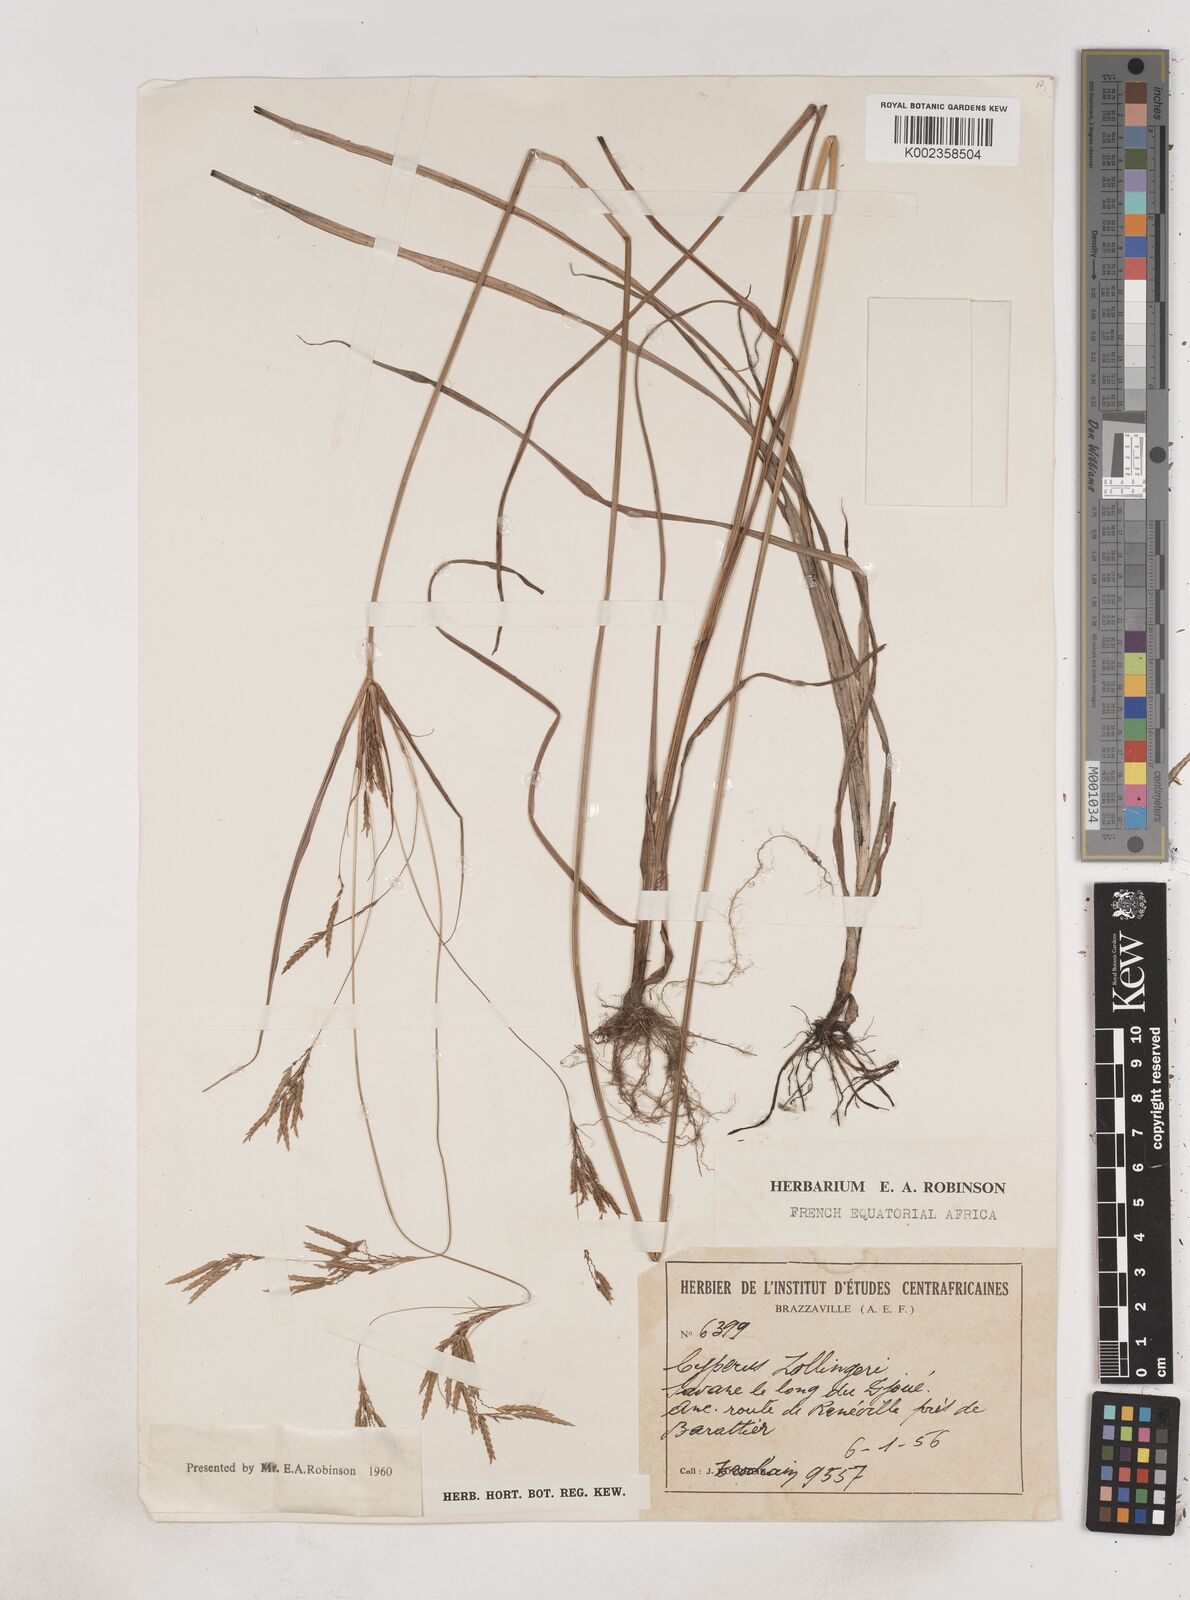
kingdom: Plantae
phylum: Tracheophyta
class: Liliopsida
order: Poales
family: Cyperaceae
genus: Cyperus
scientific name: Cyperus tenuiculmis
